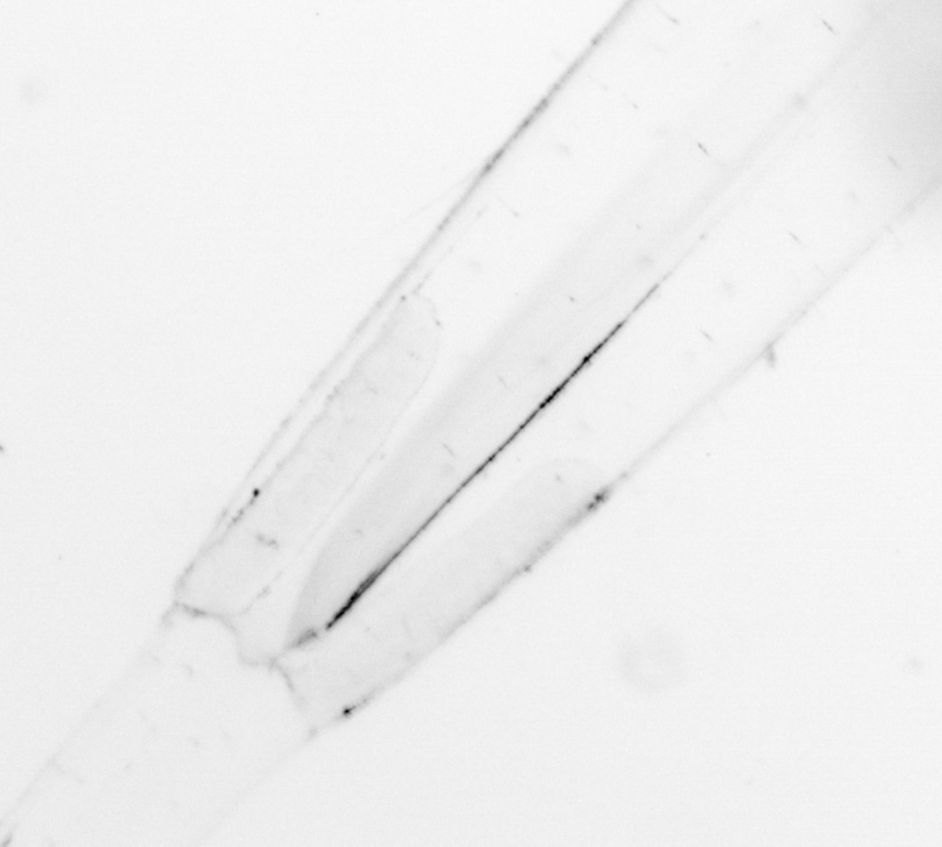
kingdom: Animalia
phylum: Chaetognatha
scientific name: Chaetognatha
